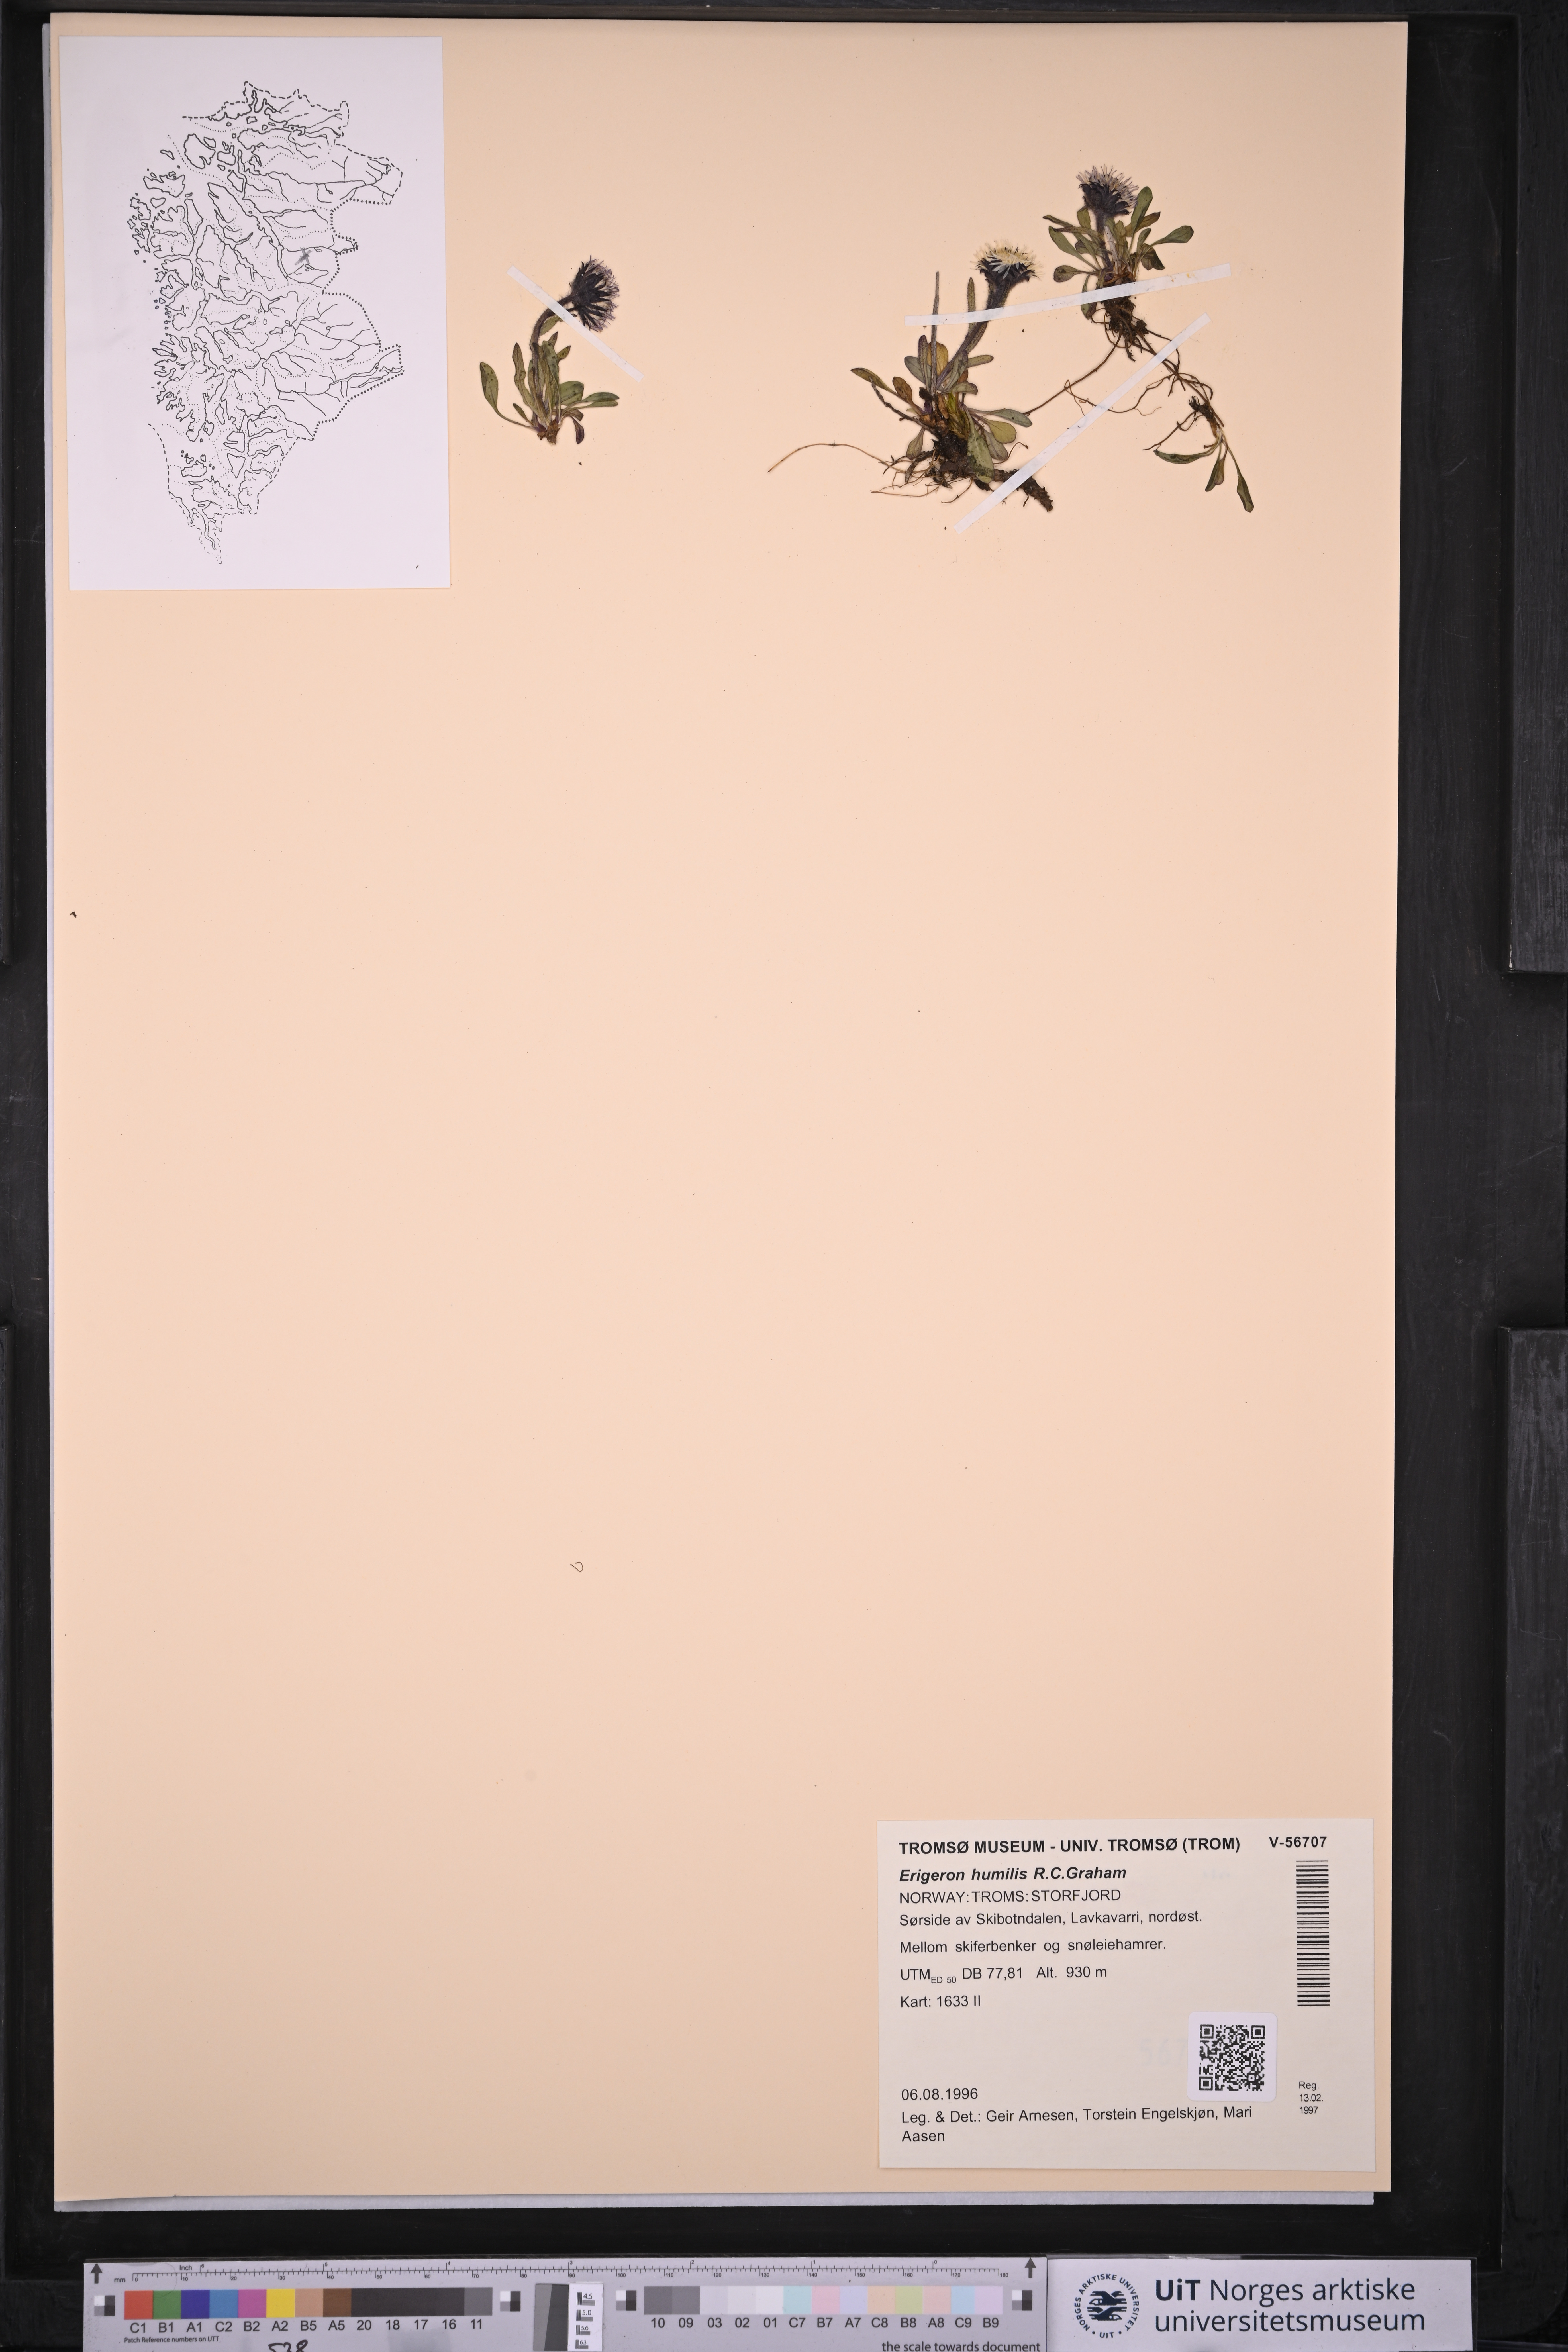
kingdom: Plantae
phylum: Tracheophyta
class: Magnoliopsida
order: Asterales
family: Asteraceae
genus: Erigeron
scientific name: Erigeron humilis
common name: Arctic-alpine fleabane
